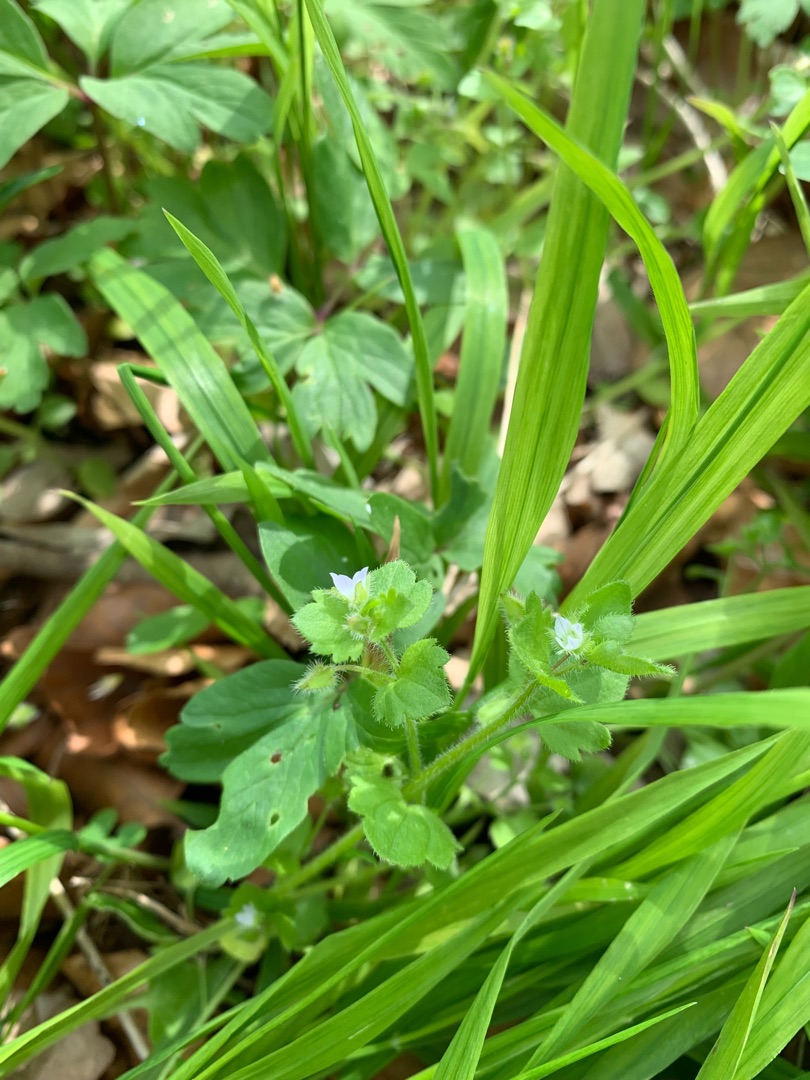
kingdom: Plantae
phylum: Tracheophyta
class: Magnoliopsida
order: Lamiales
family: Plantaginaceae
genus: Veronica
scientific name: Veronica sublobata
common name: Krat-ærenpris
